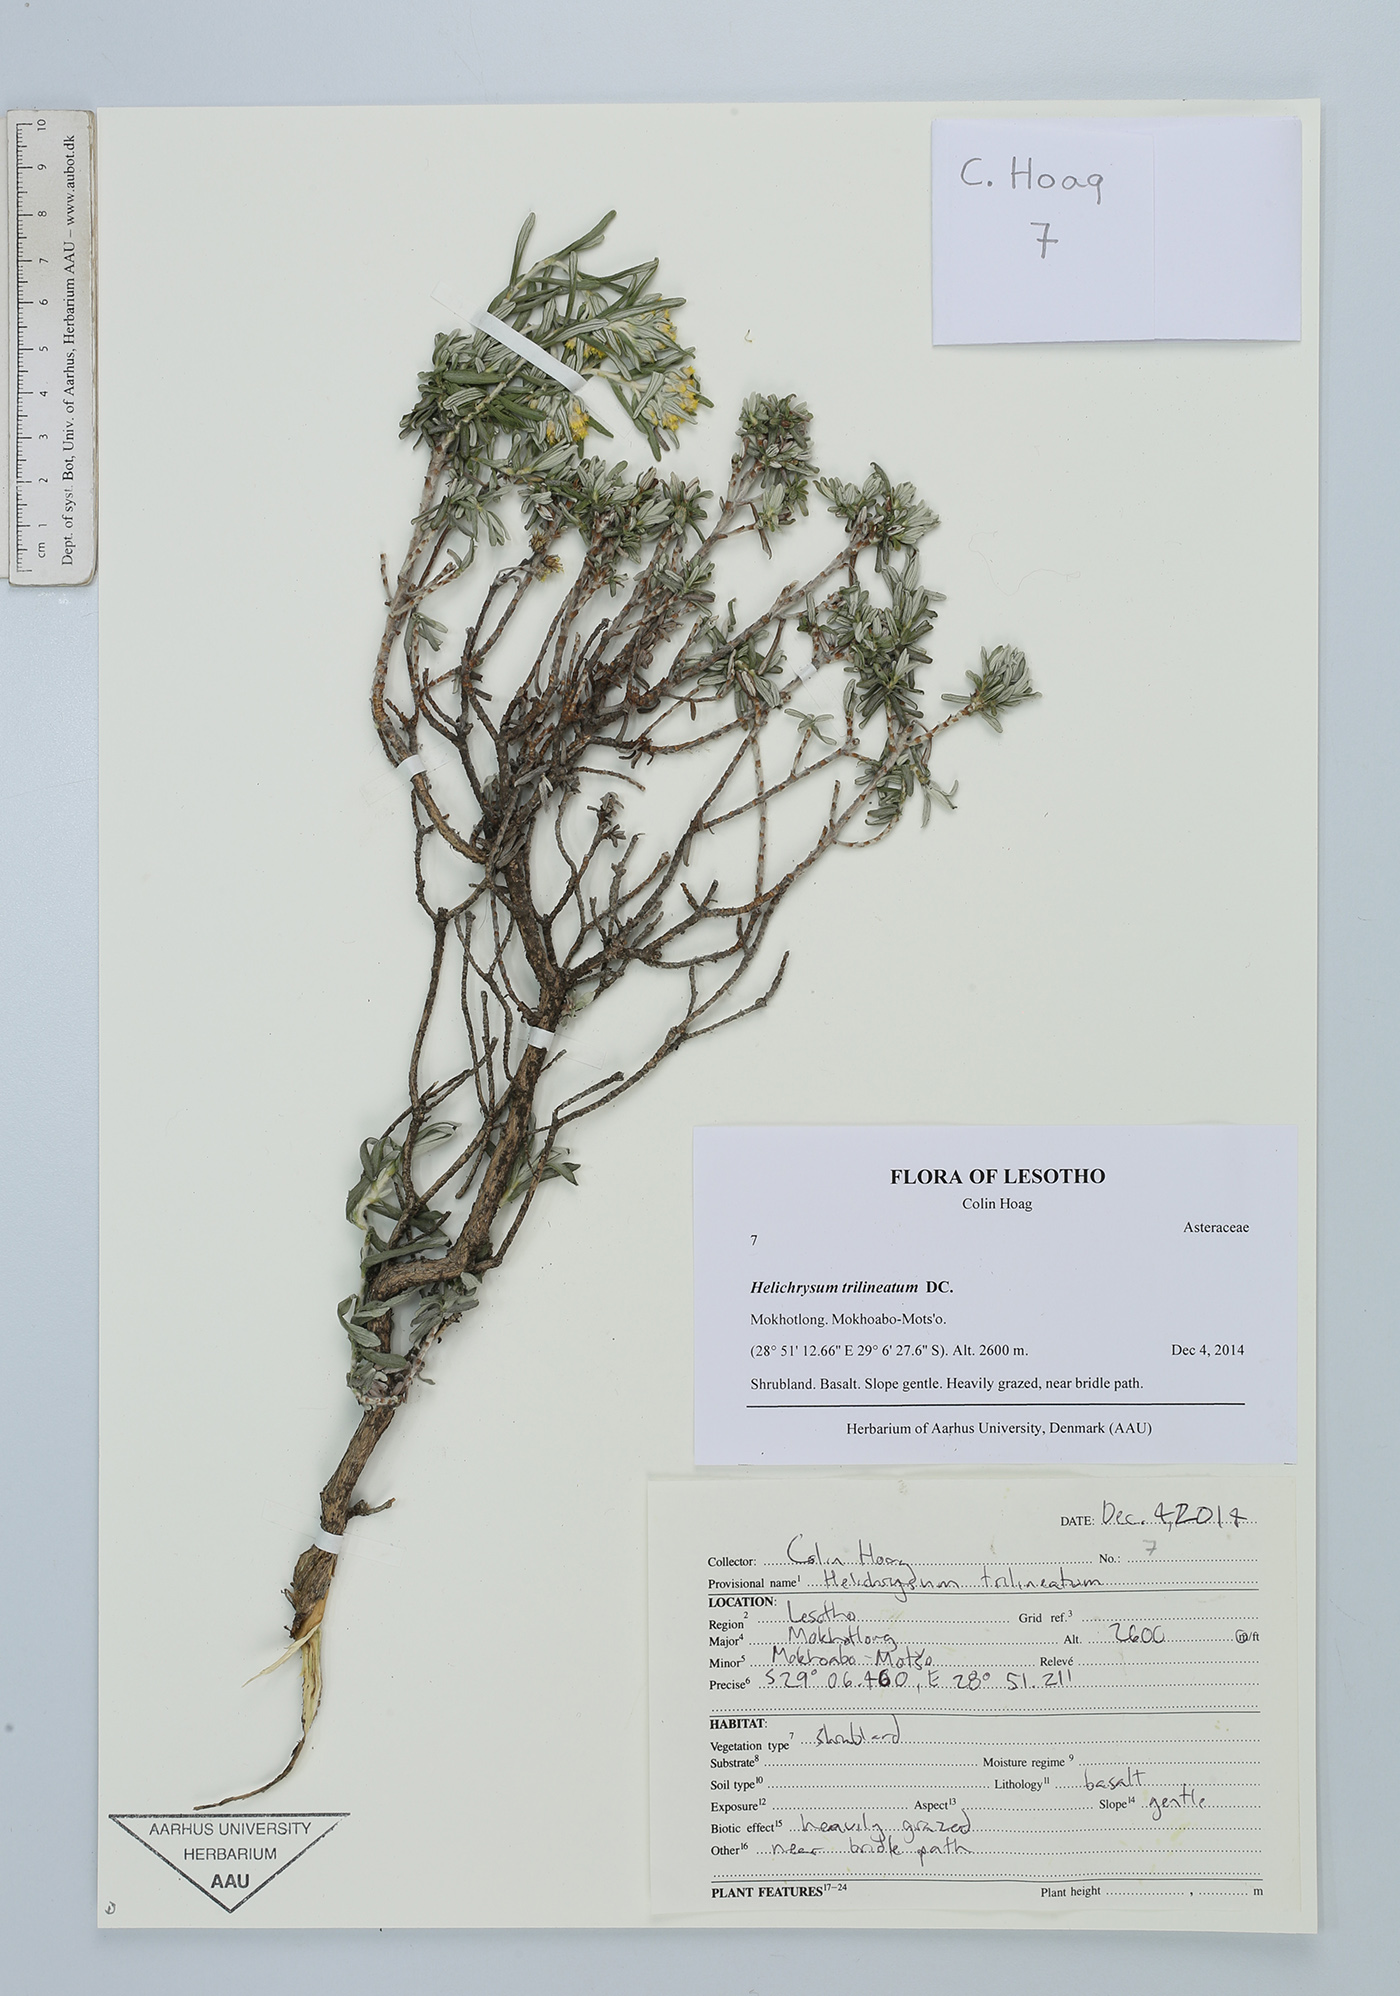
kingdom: Plantae
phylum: Tracheophyta
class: Magnoliopsida
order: Asterales
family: Asteraceae
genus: Helichrysum
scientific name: Helichrysum trilineatum
